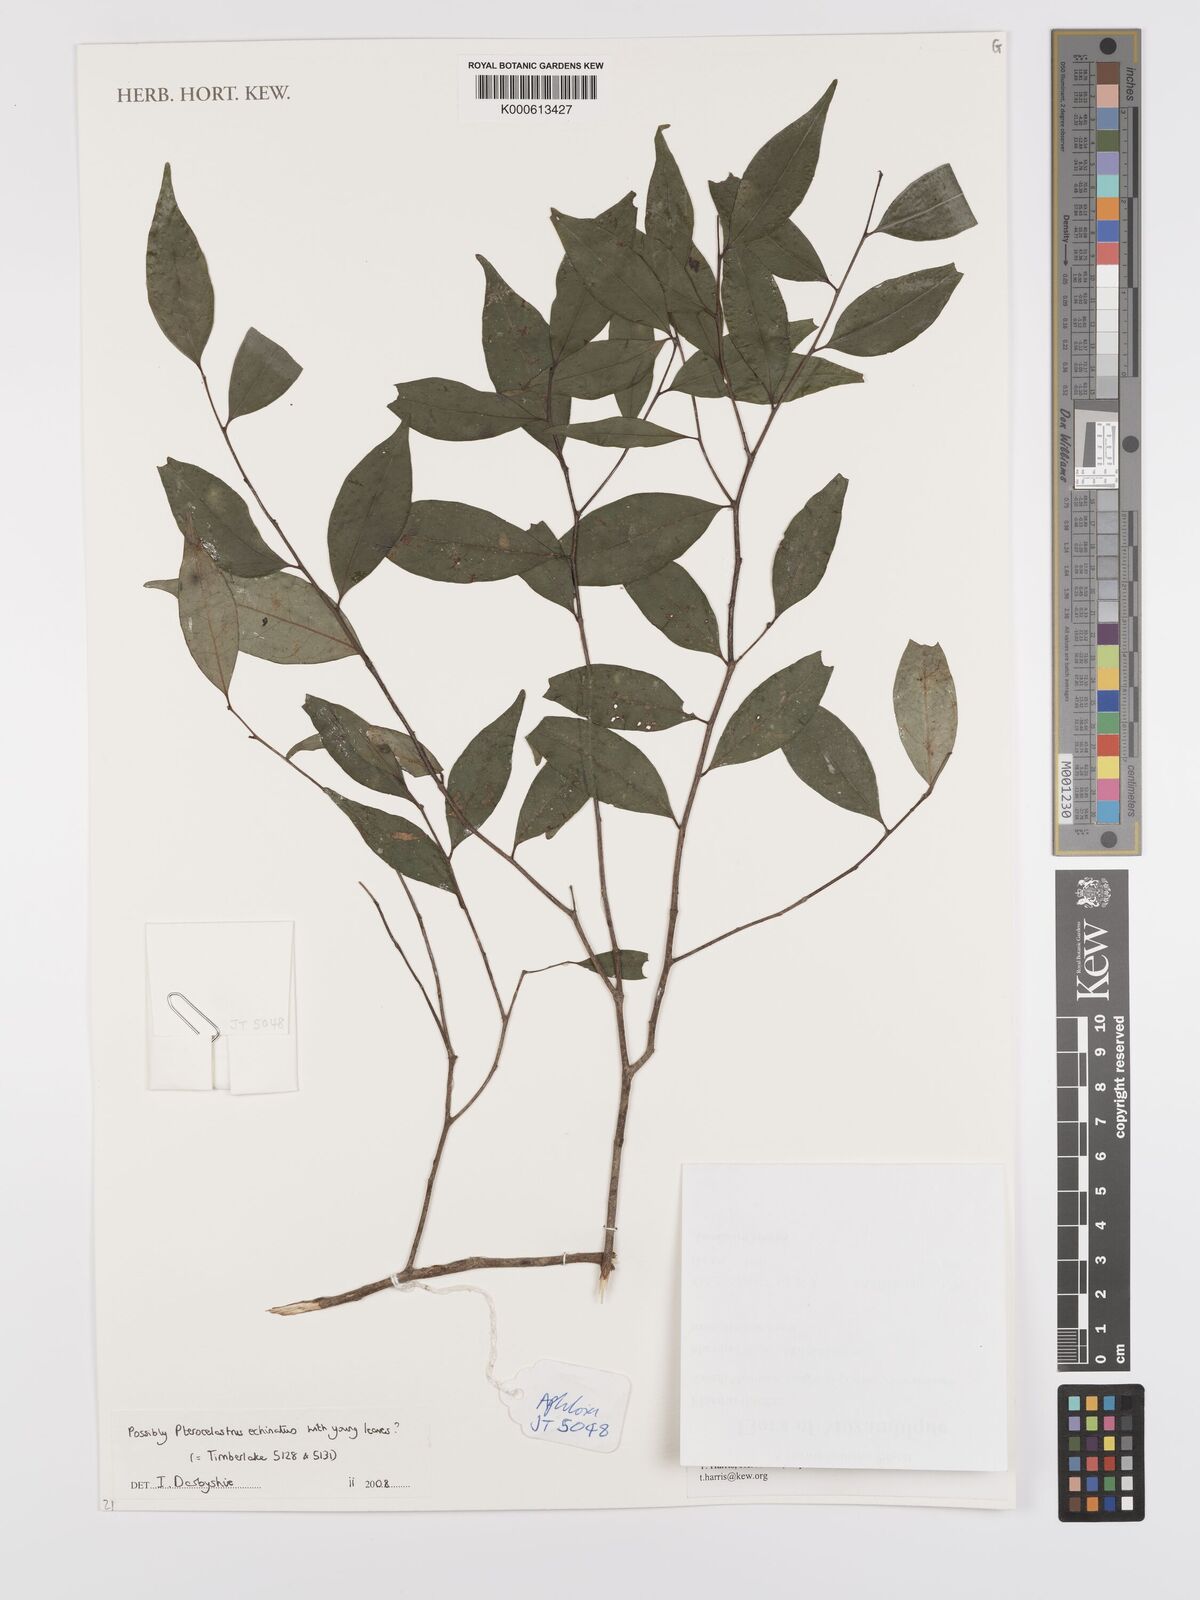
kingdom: Plantae
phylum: Tracheophyta
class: Magnoliopsida
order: Celastrales
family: Celastraceae
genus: Pterocelastrus
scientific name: Pterocelastrus
